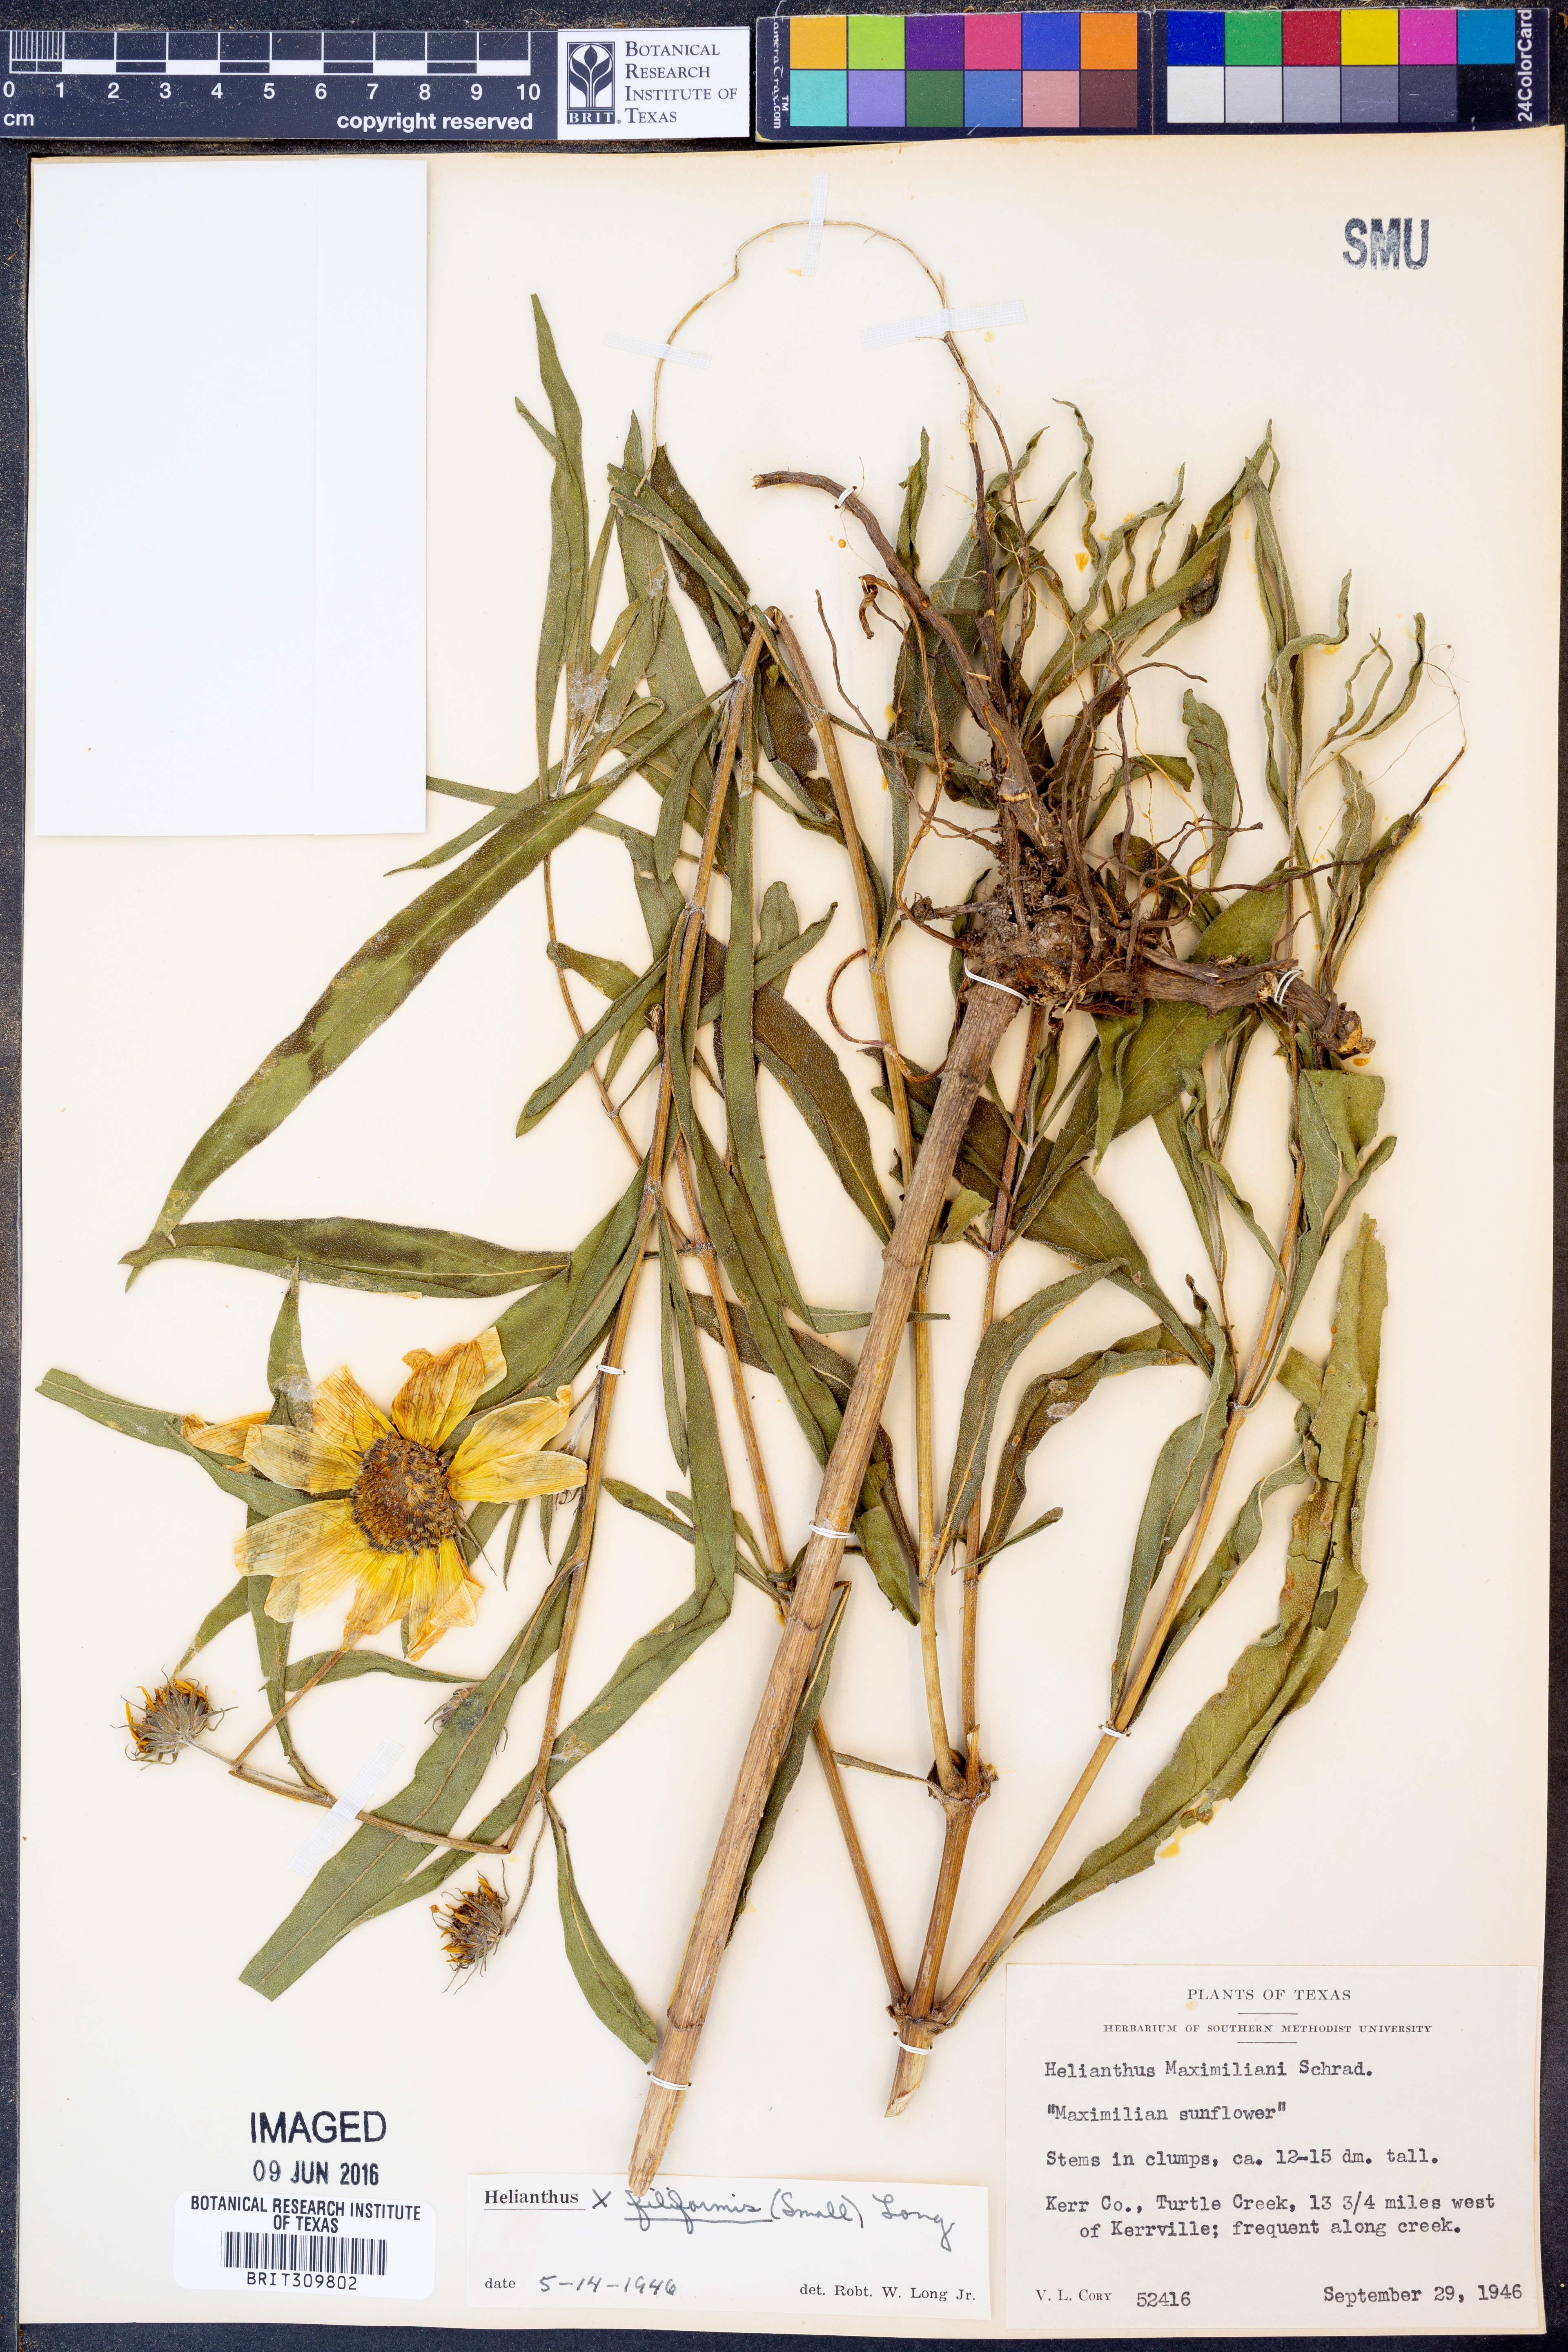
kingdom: Plantae
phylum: Tracheophyta
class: Magnoliopsida
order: Asterales
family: Asteraceae
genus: Helianthus
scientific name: Helianthus salicifolius
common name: Willowleaf sunflower
